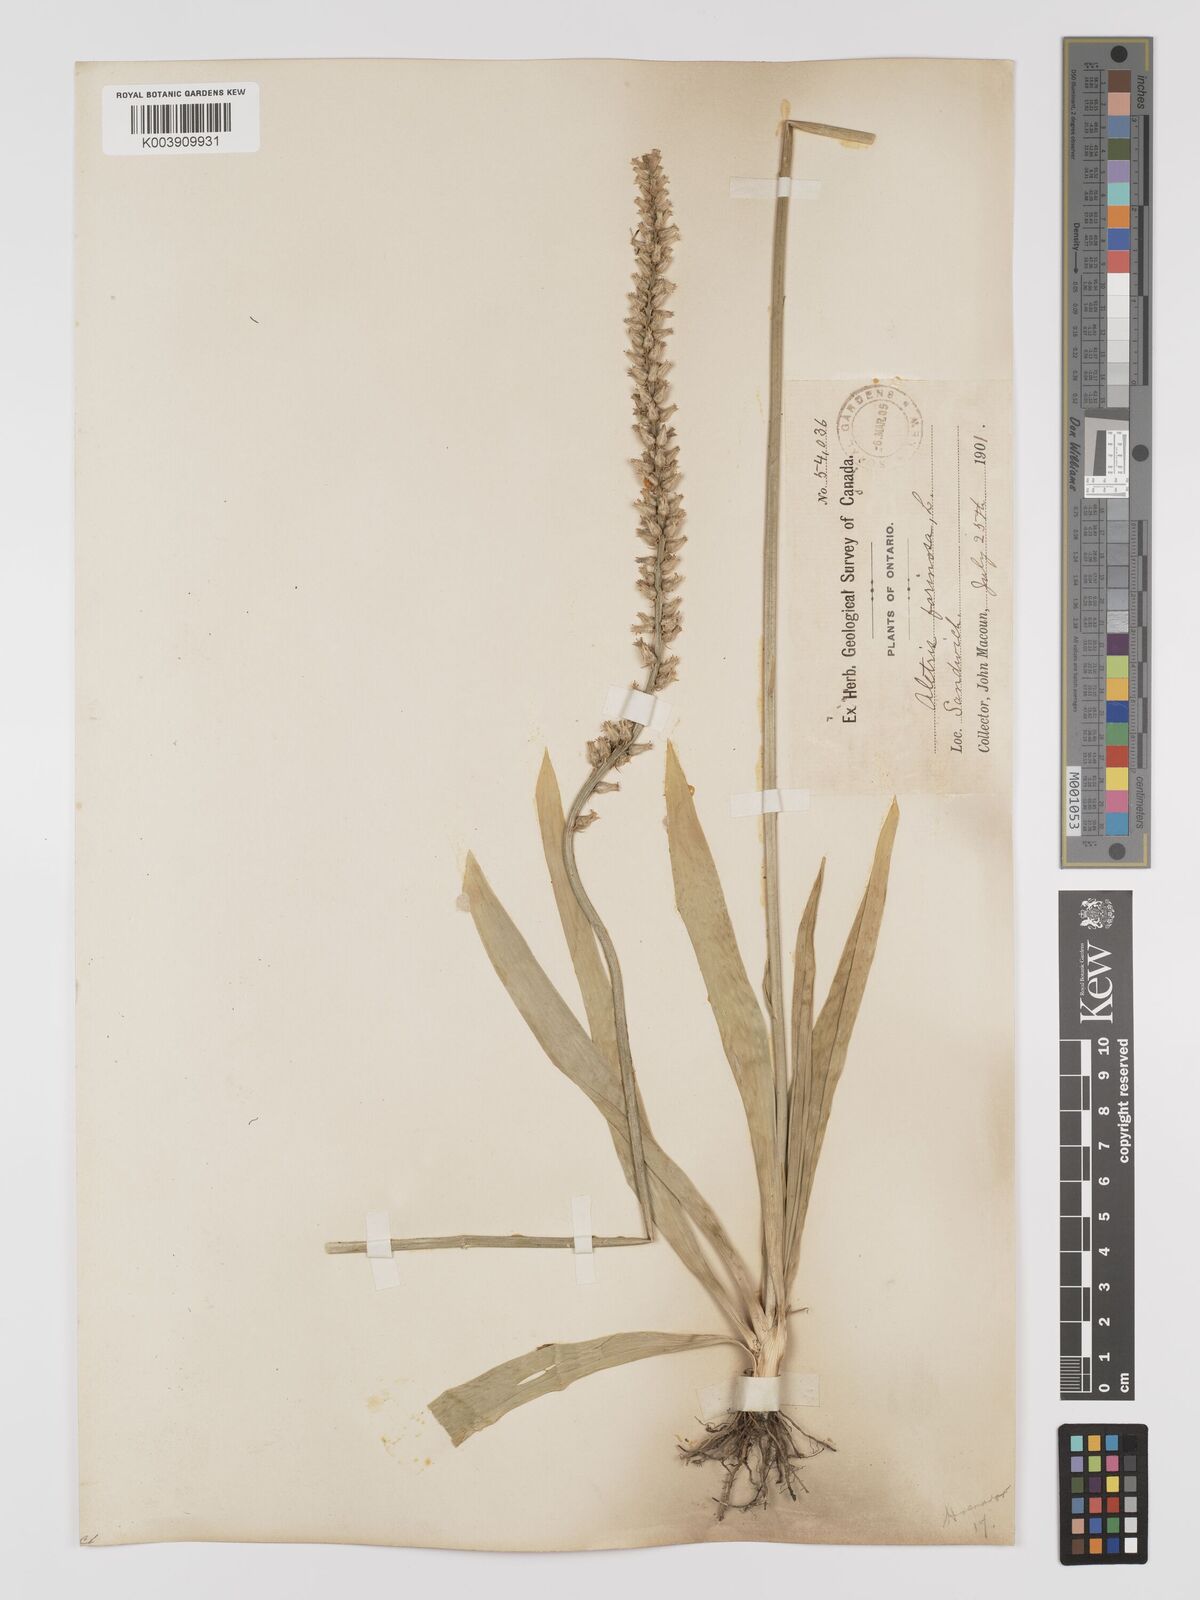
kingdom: Plantae
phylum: Tracheophyta
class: Liliopsida
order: Dioscoreales
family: Nartheciaceae
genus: Aletris
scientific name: Aletris farinosa
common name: Colicroot
